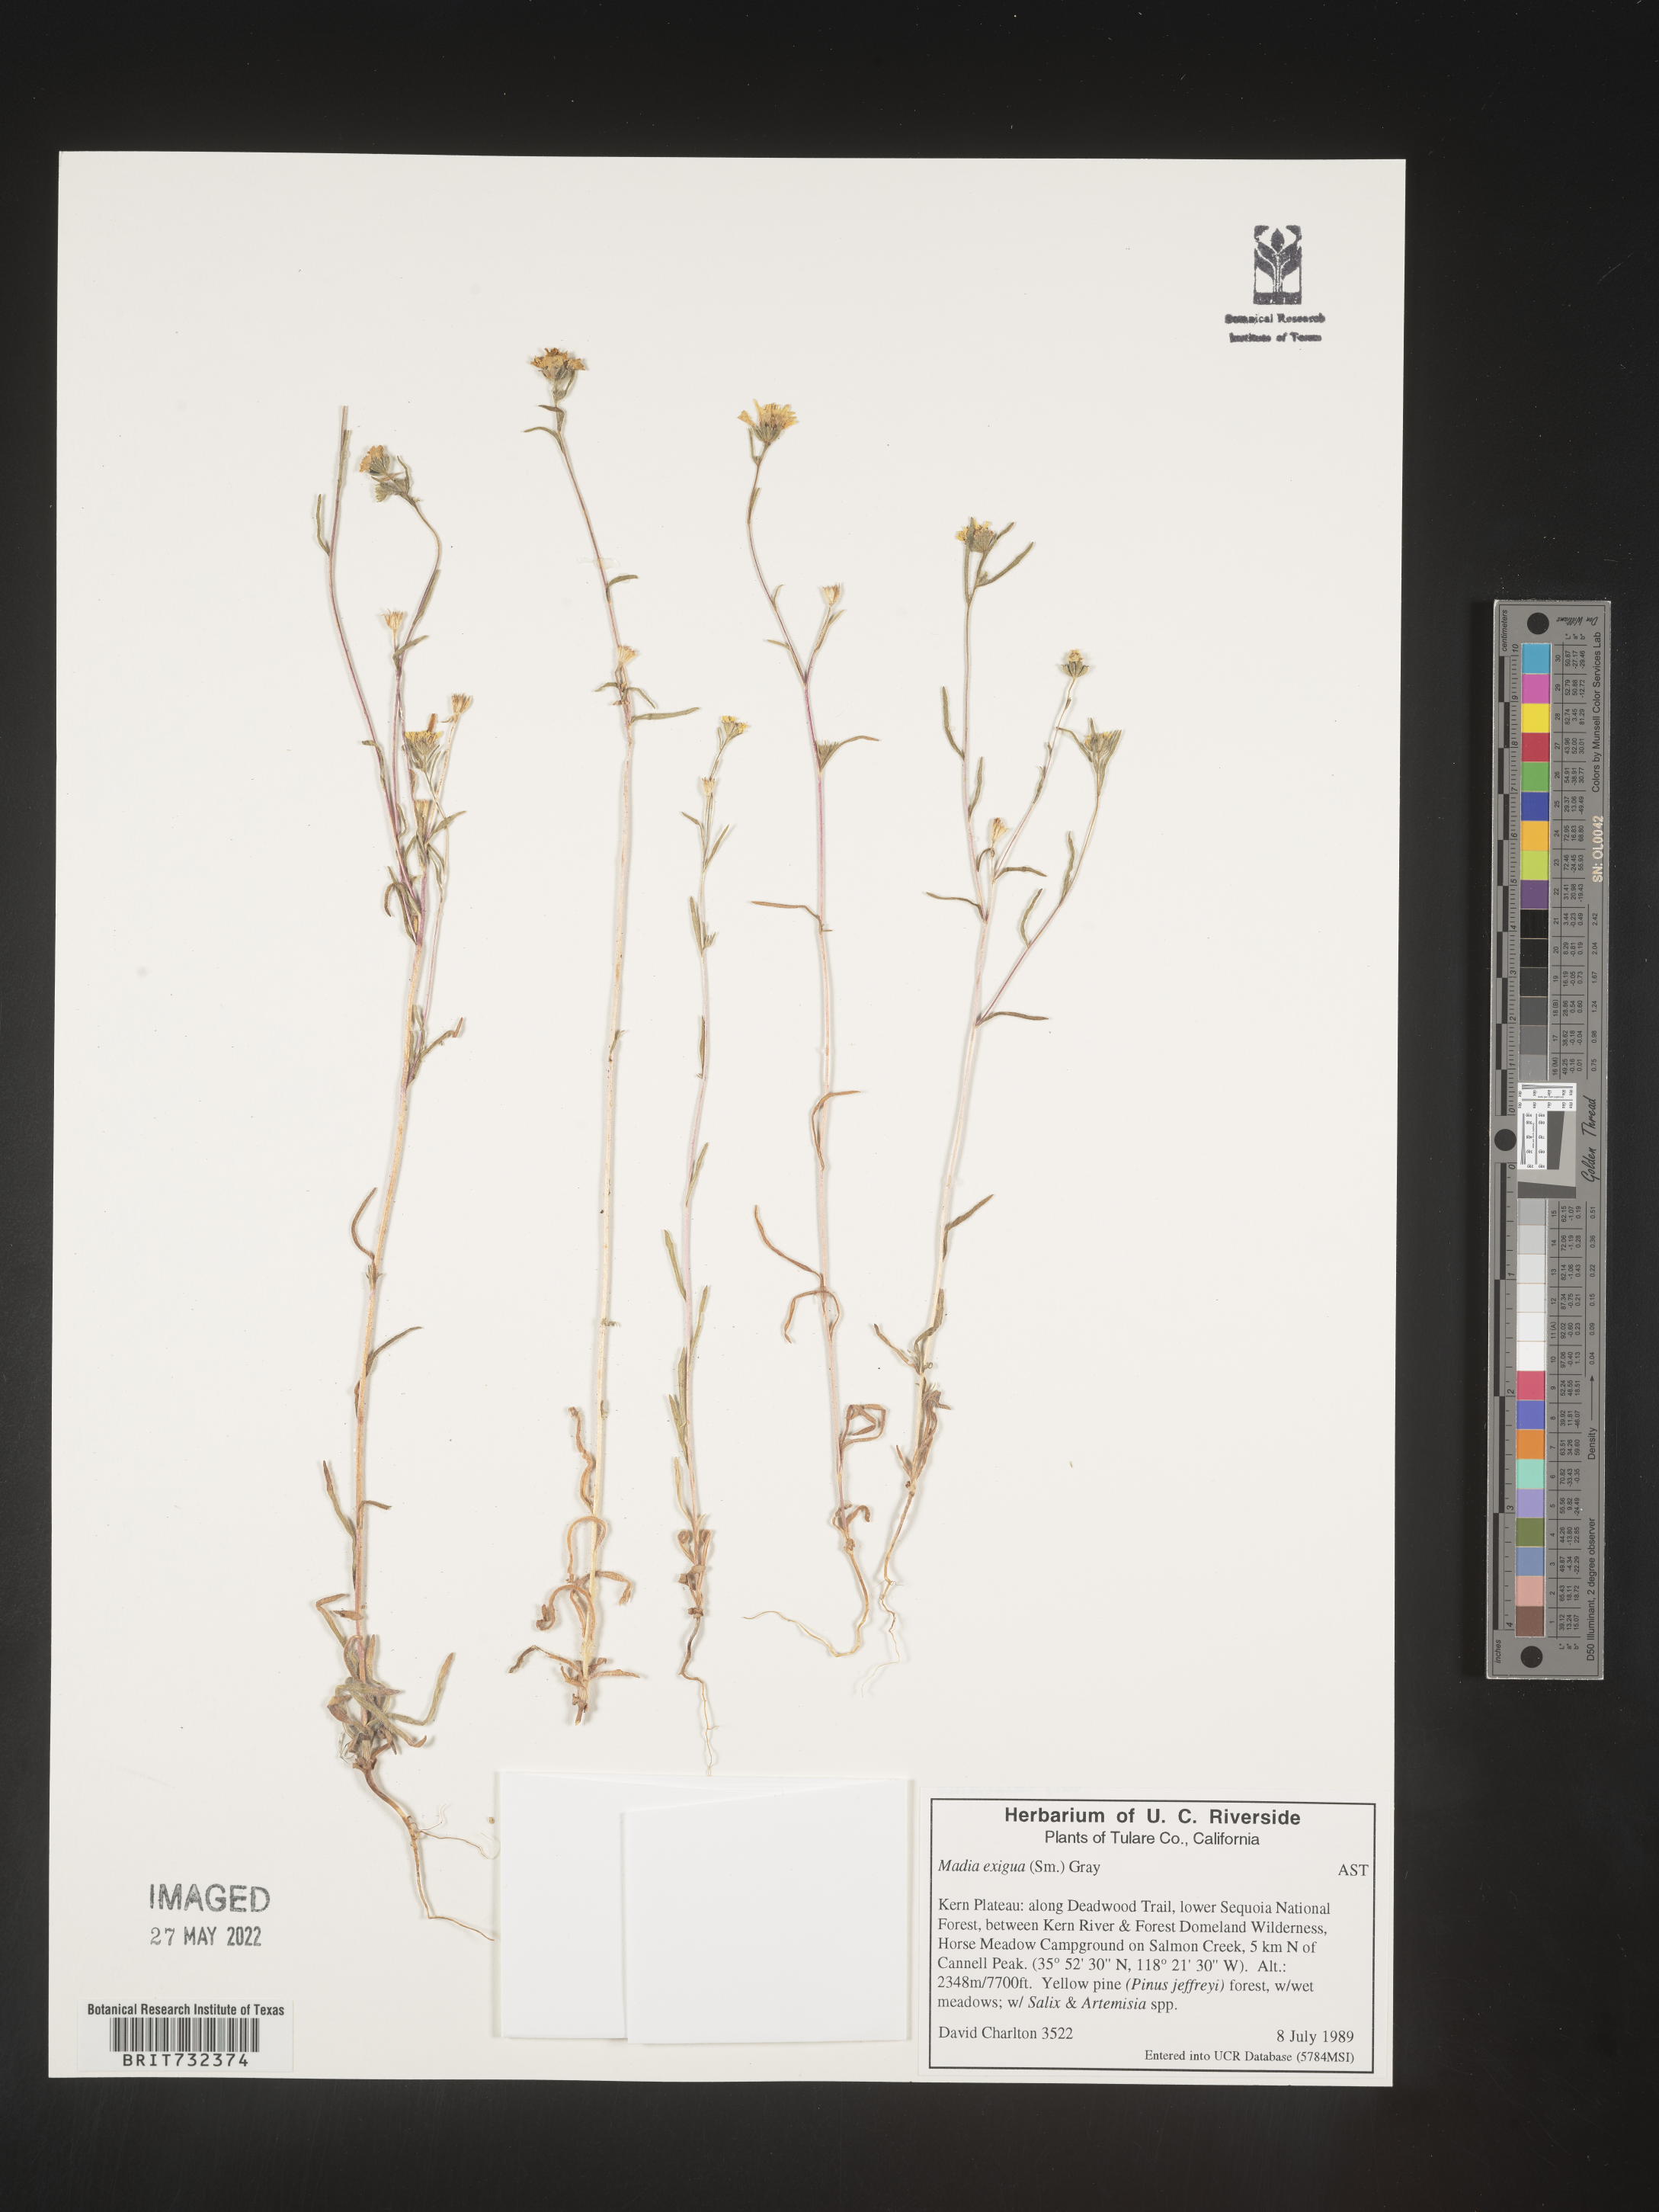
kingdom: Plantae
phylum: Tracheophyta
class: Magnoliopsida
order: Asterales
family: Asteraceae
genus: Madia
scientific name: Madia
